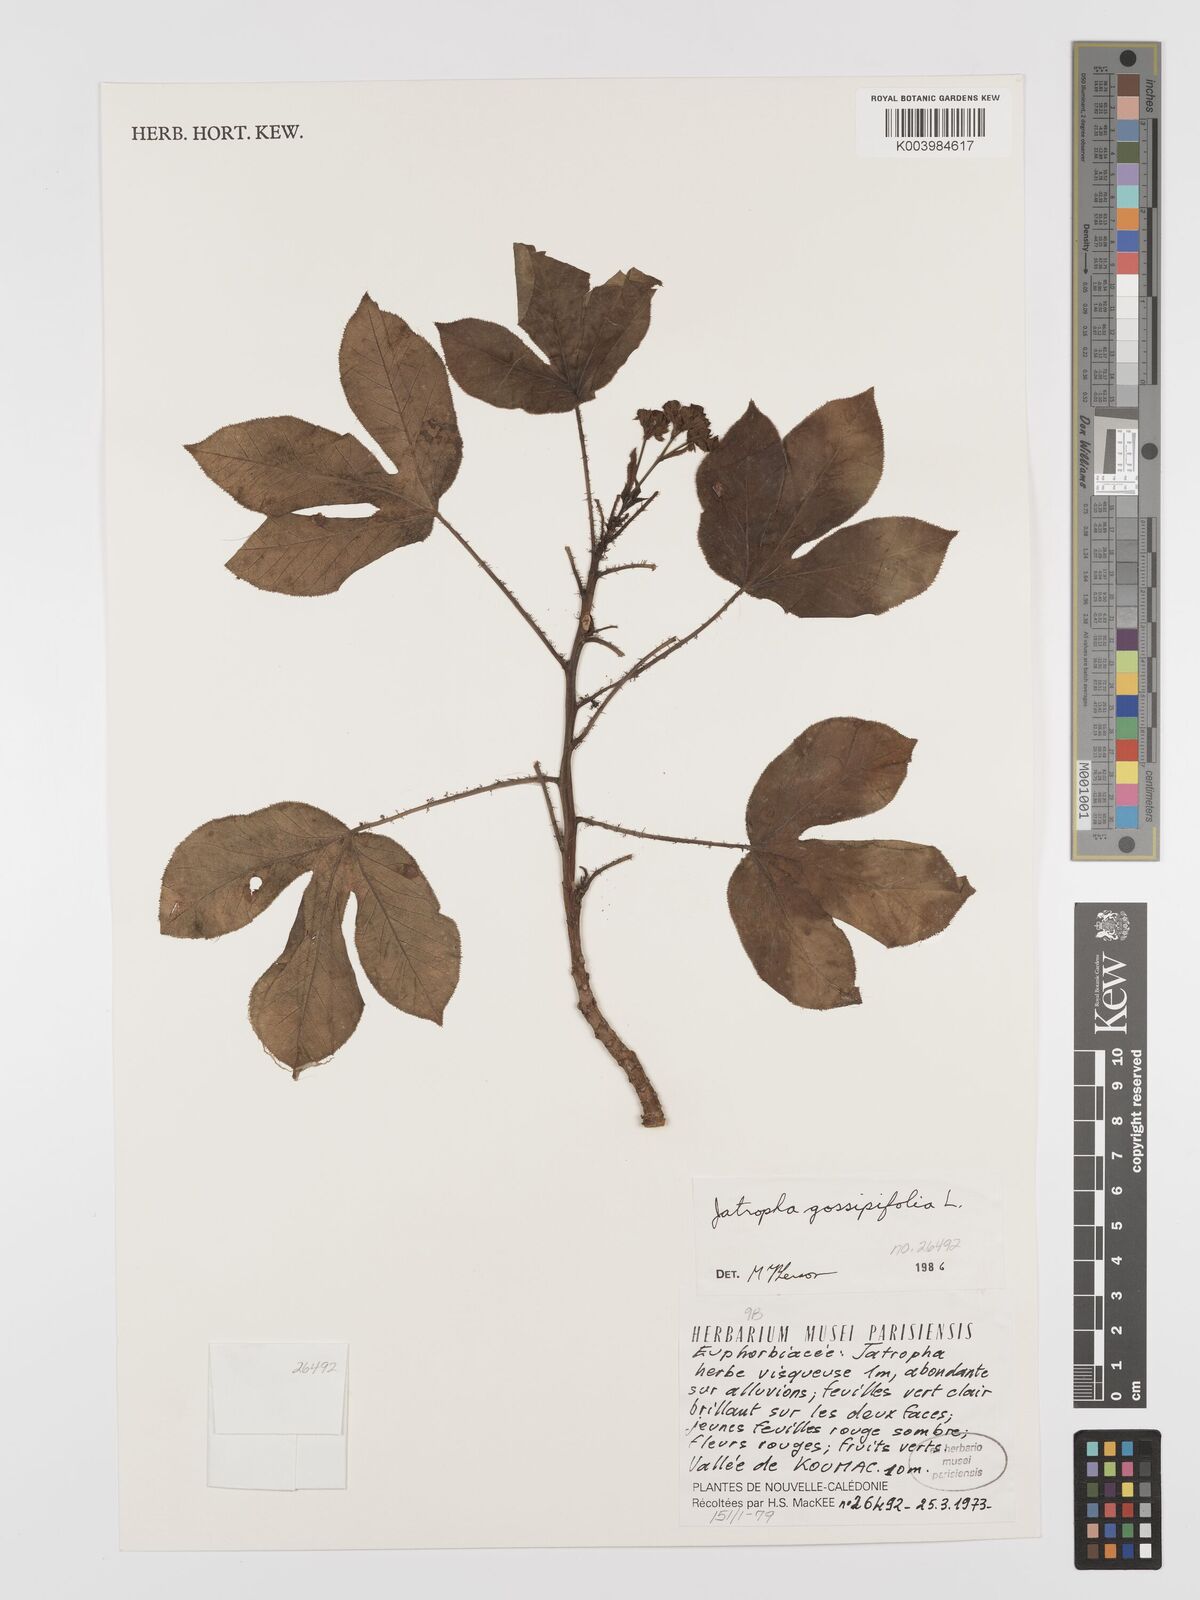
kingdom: Plantae
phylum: Tracheophyta
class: Magnoliopsida
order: Malpighiales
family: Euphorbiaceae
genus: Jatropha
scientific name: Jatropha gossypiifolia
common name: Bellyache bush
